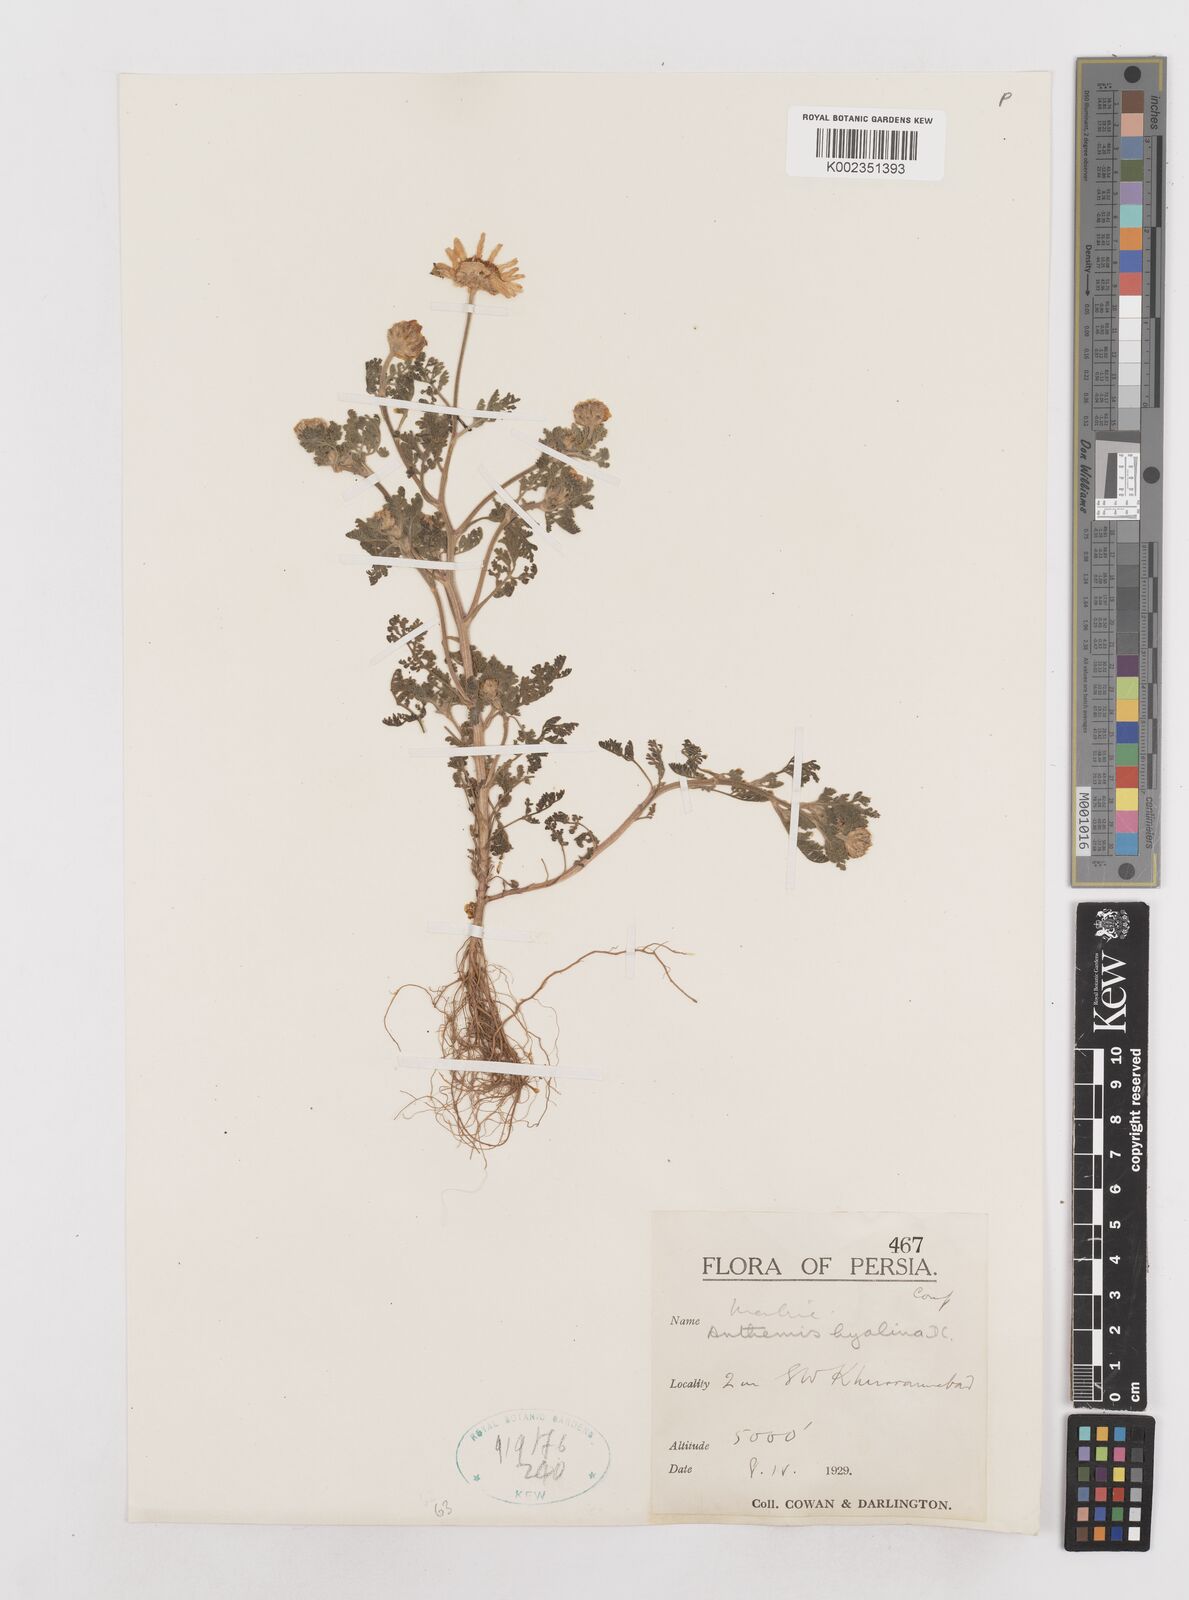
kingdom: Plantae
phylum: Tracheophyta
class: Magnoliopsida
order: Asterales
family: Asteraceae
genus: Anthemis
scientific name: Anthemis hyalina
